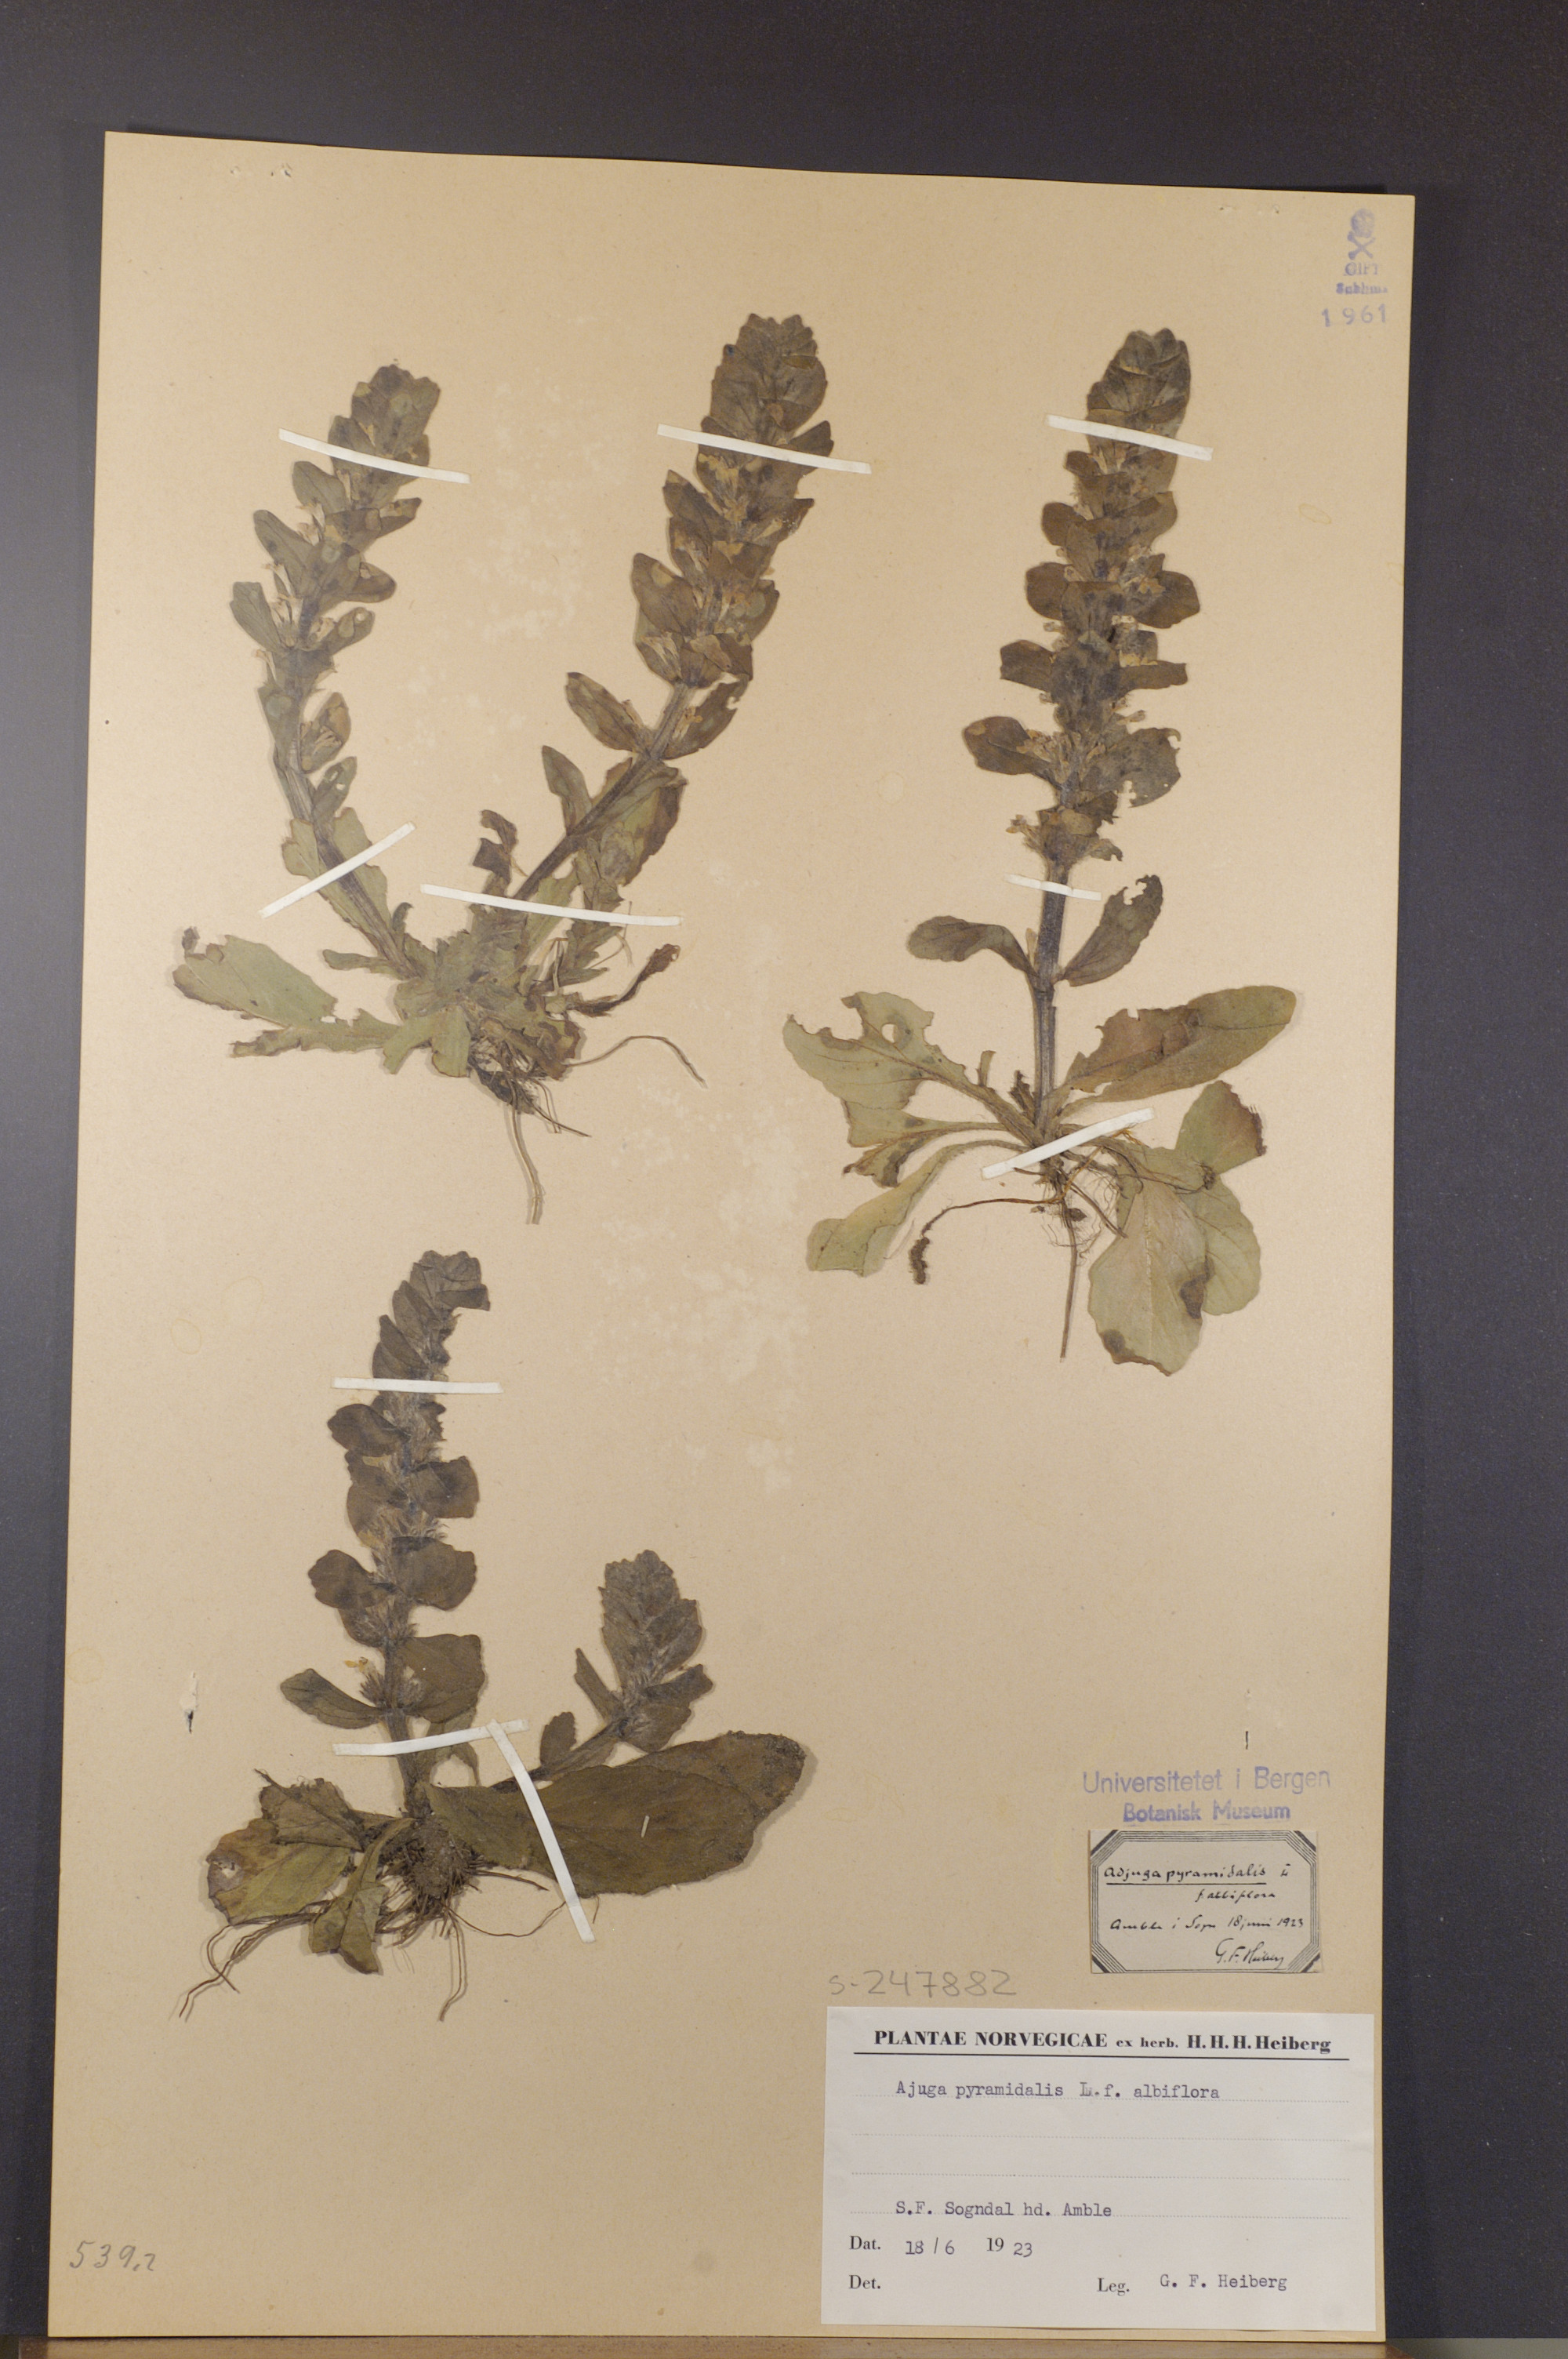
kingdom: Plantae
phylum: Tracheophyta
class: Magnoliopsida
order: Lamiales
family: Lamiaceae
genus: Ajuga
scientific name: Ajuga pyramidalis
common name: Pyramid bugle
